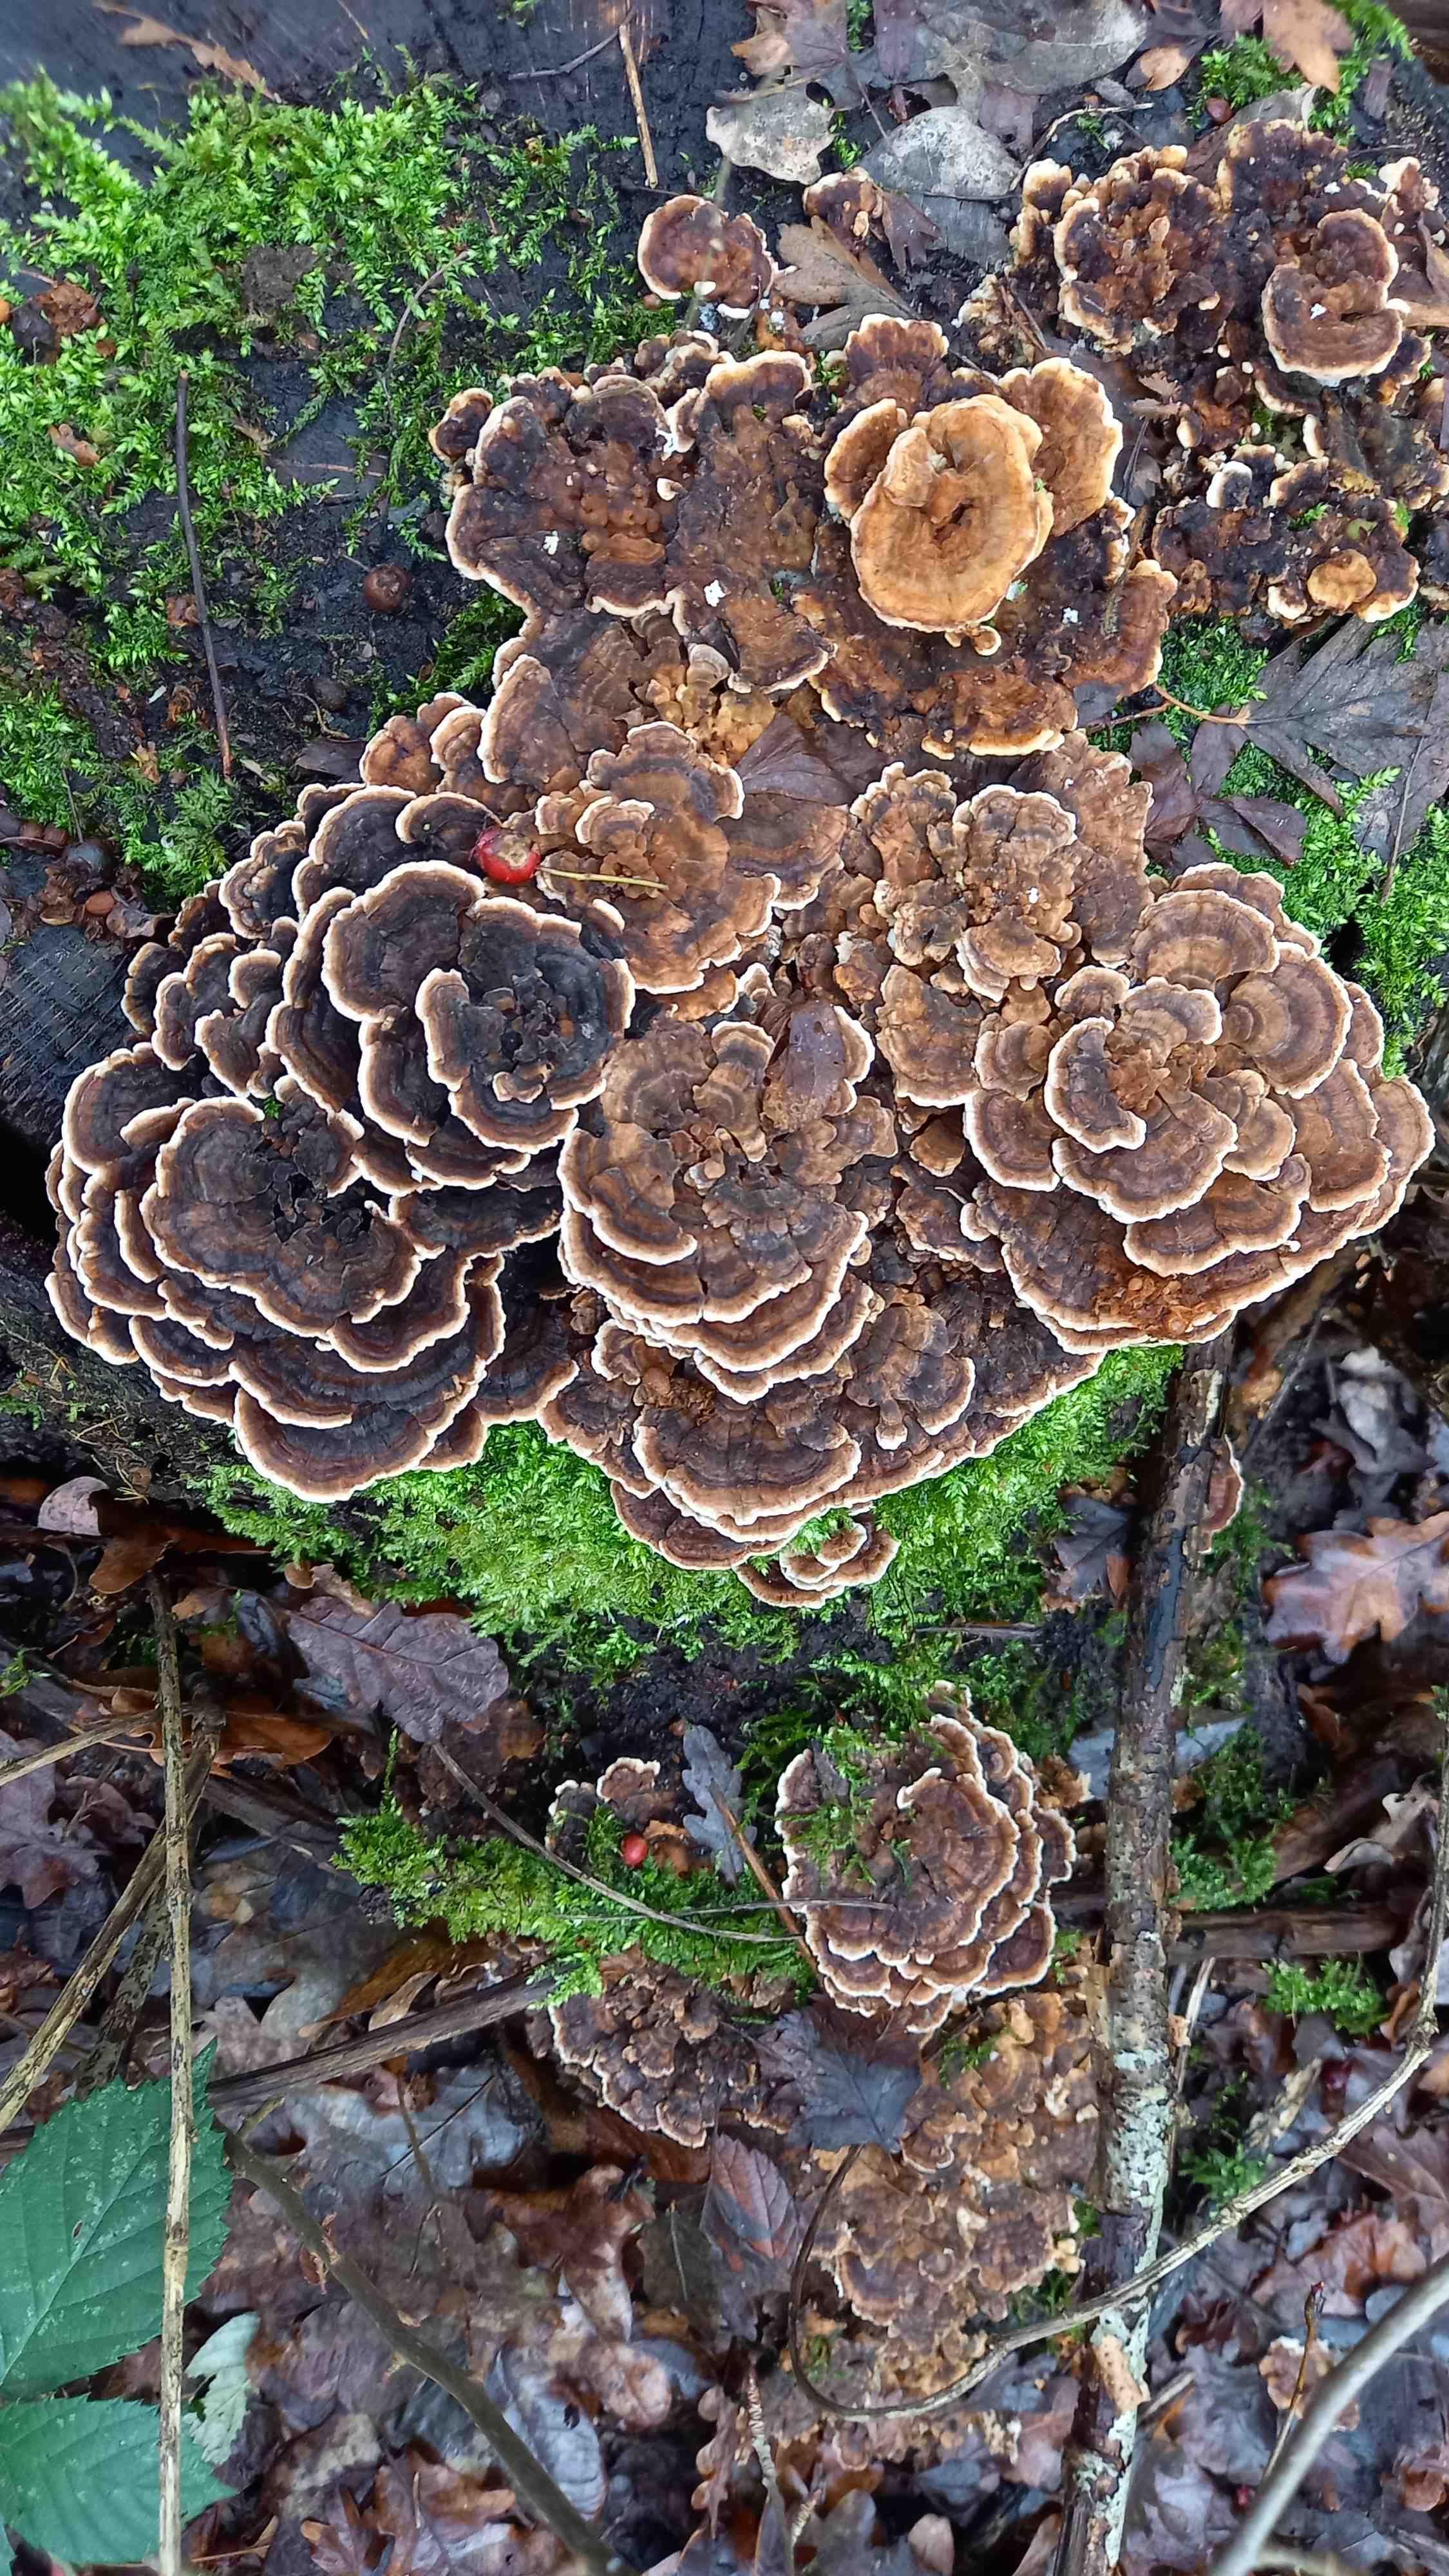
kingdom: Fungi
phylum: Basidiomycota
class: Agaricomycetes
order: Polyporales
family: Polyporaceae
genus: Trametes
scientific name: Trametes versicolor
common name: broget læderporesvamp
